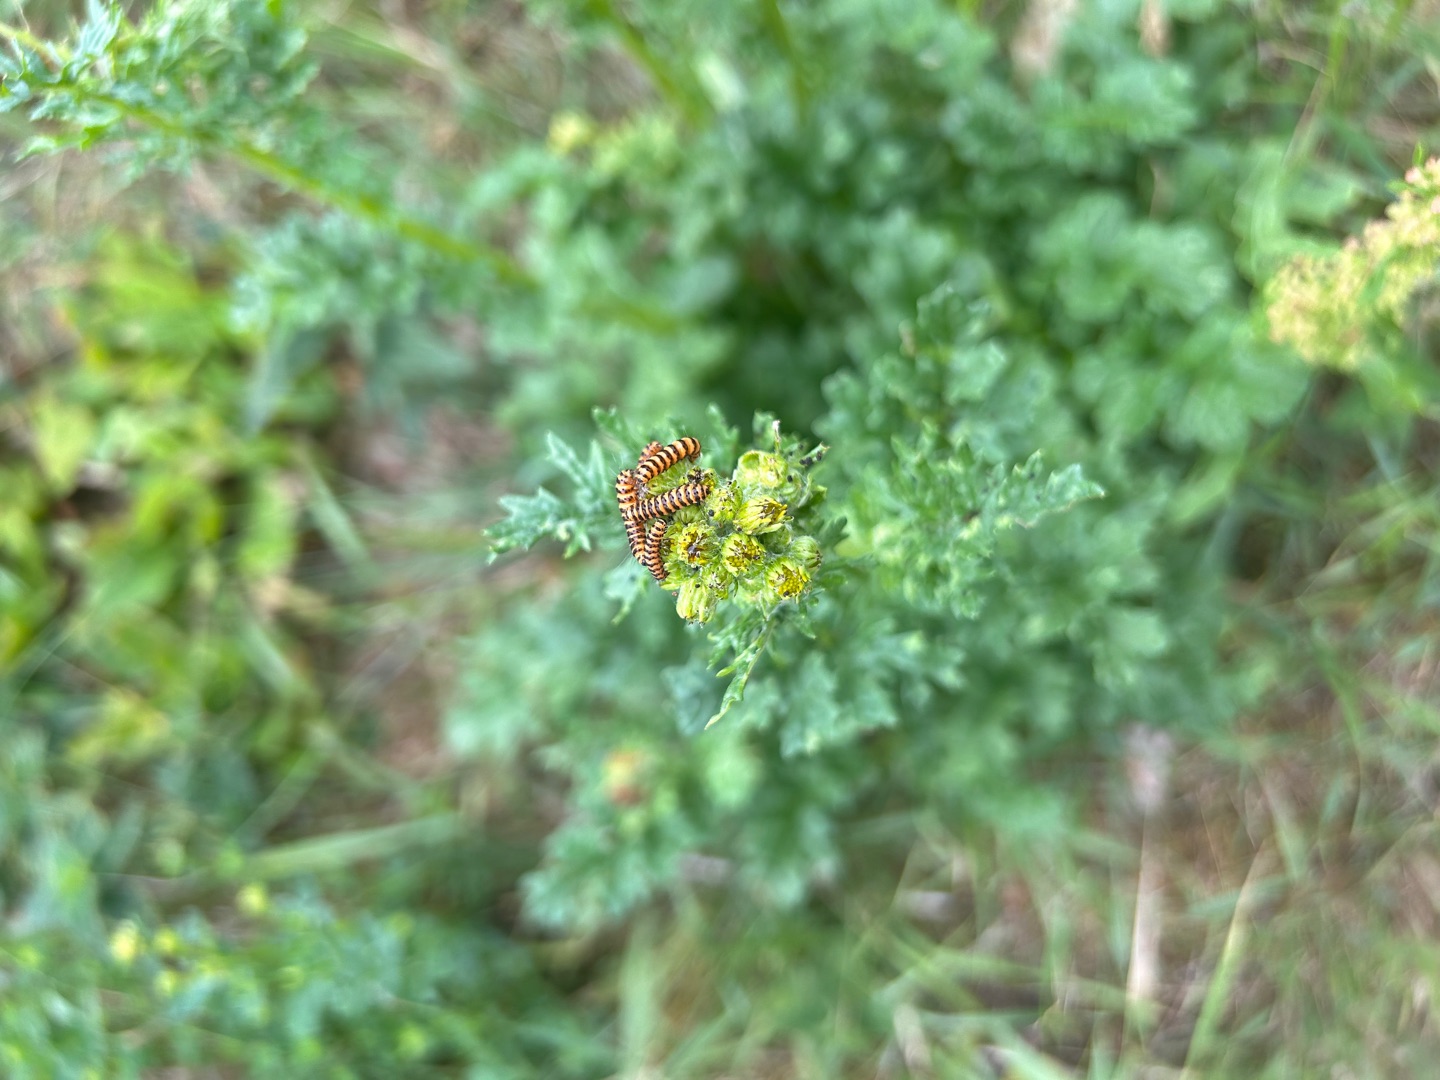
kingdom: Animalia
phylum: Arthropoda
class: Insecta
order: Lepidoptera
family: Erebidae
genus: Tyria
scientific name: Tyria jacobaeae
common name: Blodplet
